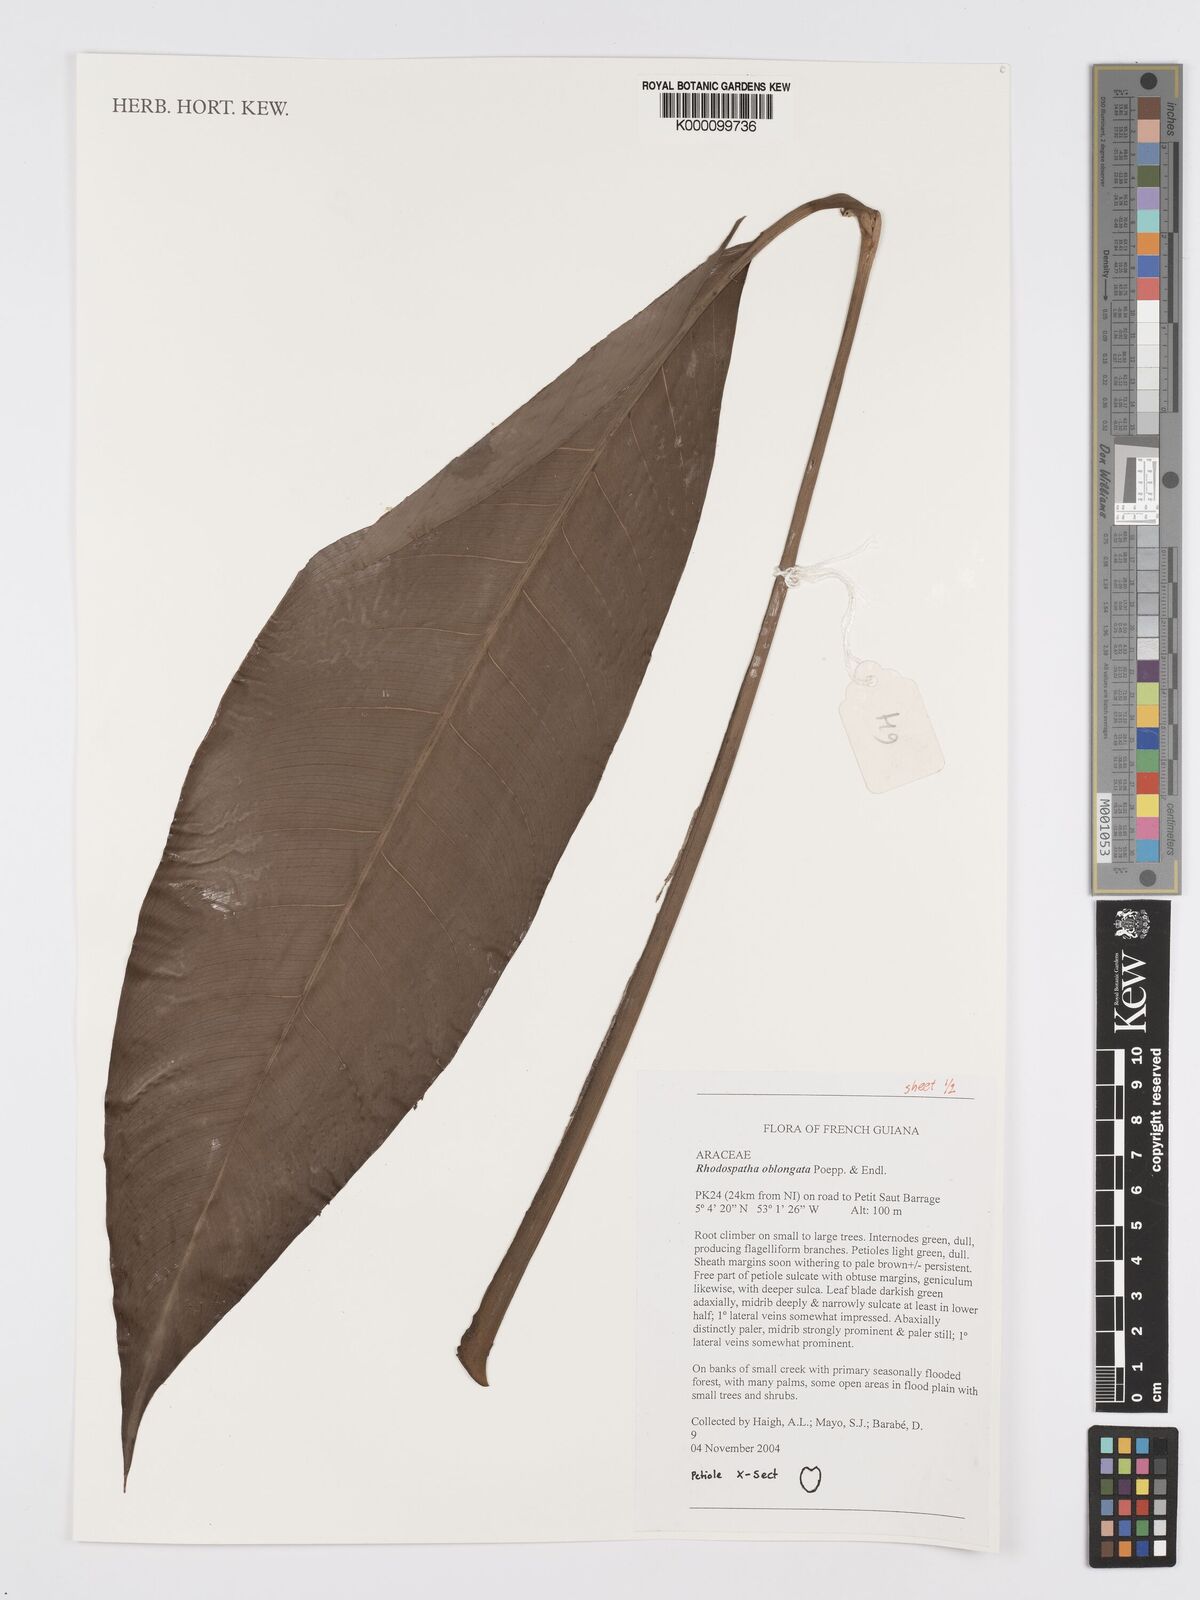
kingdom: Plantae
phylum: Tracheophyta
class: Liliopsida
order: Alismatales
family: Araceae
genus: Rhodospatha
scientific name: Rhodospatha oblongata
